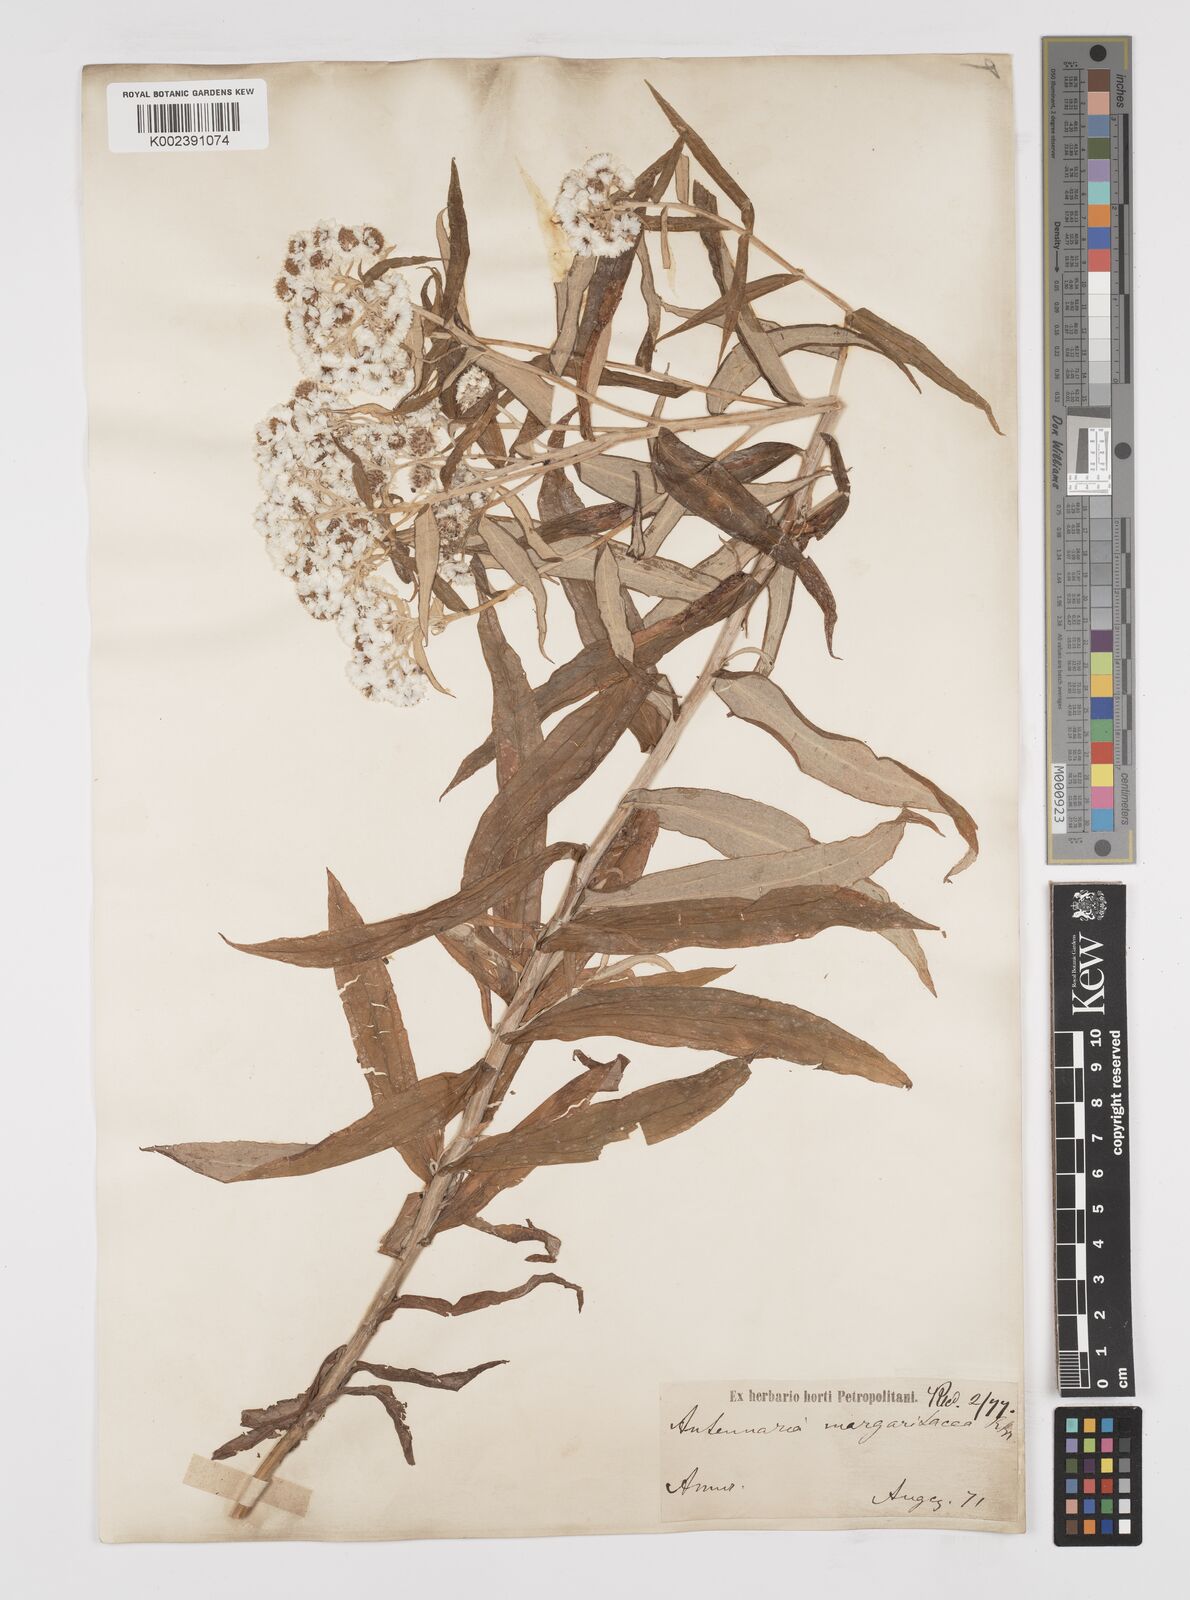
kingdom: Plantae
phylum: Tracheophyta
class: Magnoliopsida
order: Asterales
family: Asteraceae
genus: Anaphalis
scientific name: Anaphalis margaritacea
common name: Pearly everlasting
